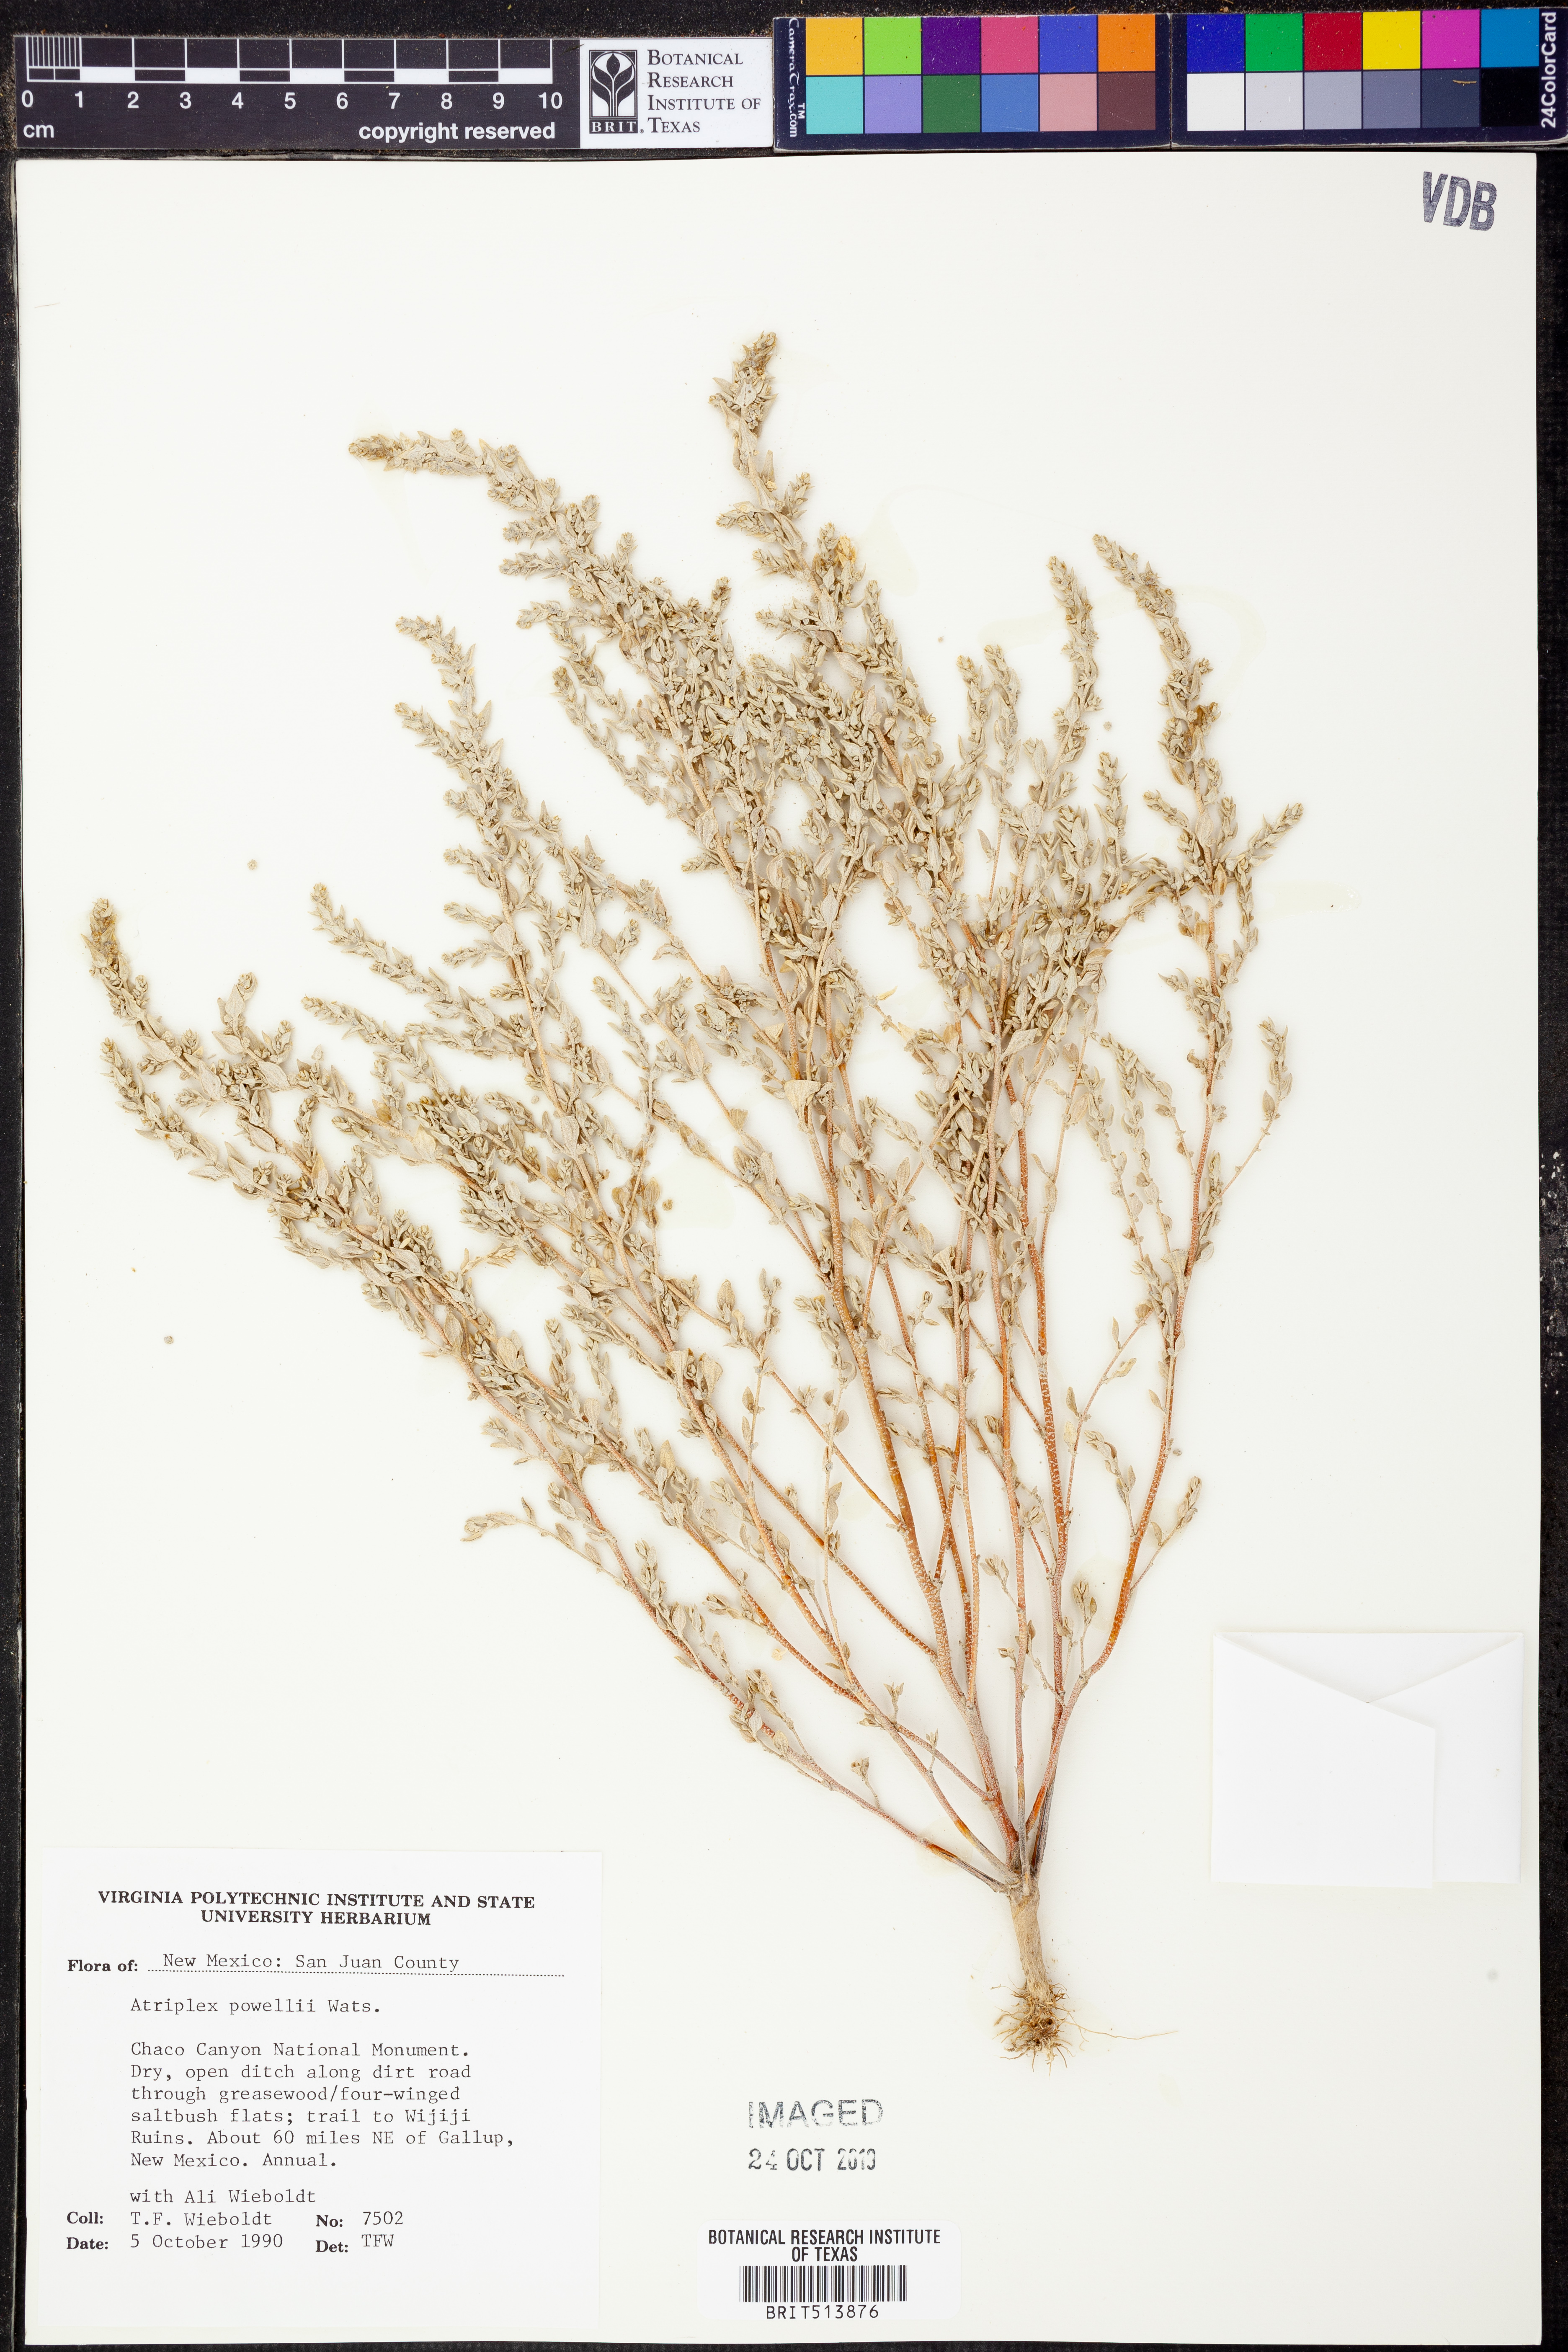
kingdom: Plantae
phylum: Tracheophyta
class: Magnoliopsida
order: Caryophyllales
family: Amaranthaceae
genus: Atriplex
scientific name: Atriplex powellii
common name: Powell's orache
